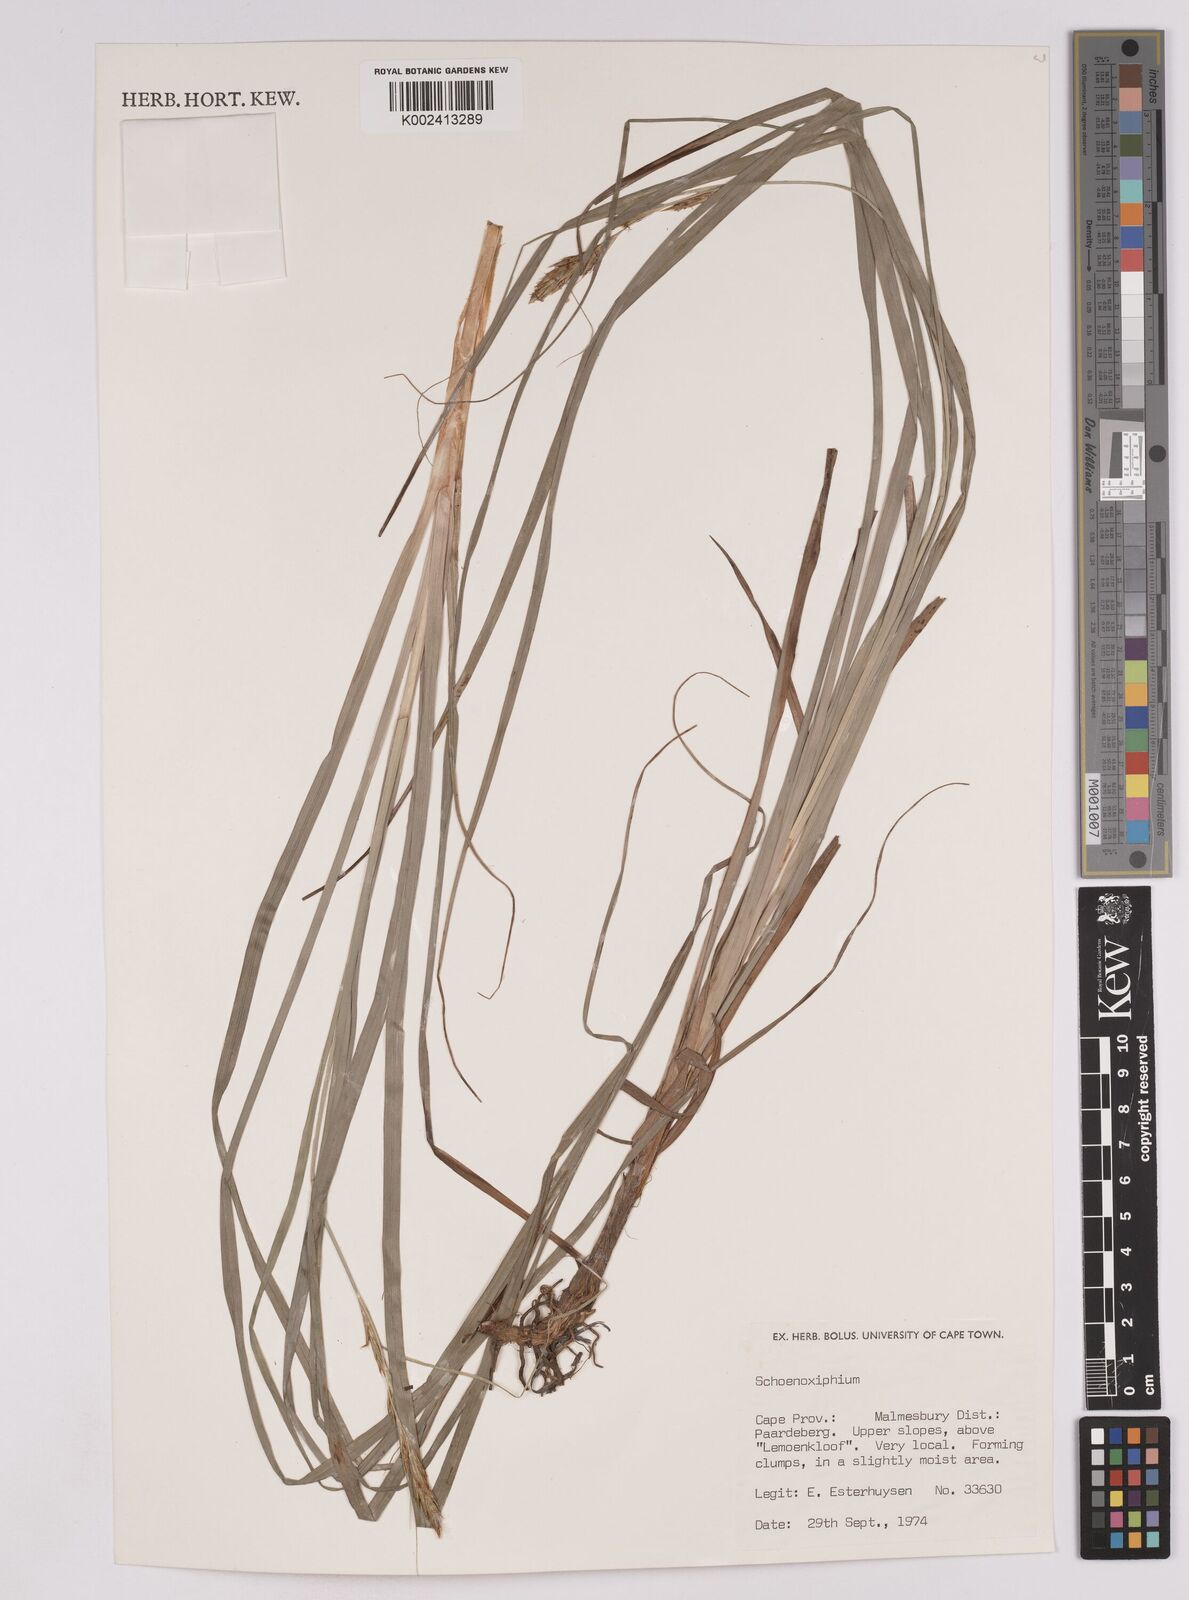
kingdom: Plantae
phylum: Tracheophyta
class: Liliopsida
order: Poales
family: Cyperaceae
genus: Carex
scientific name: Carex
